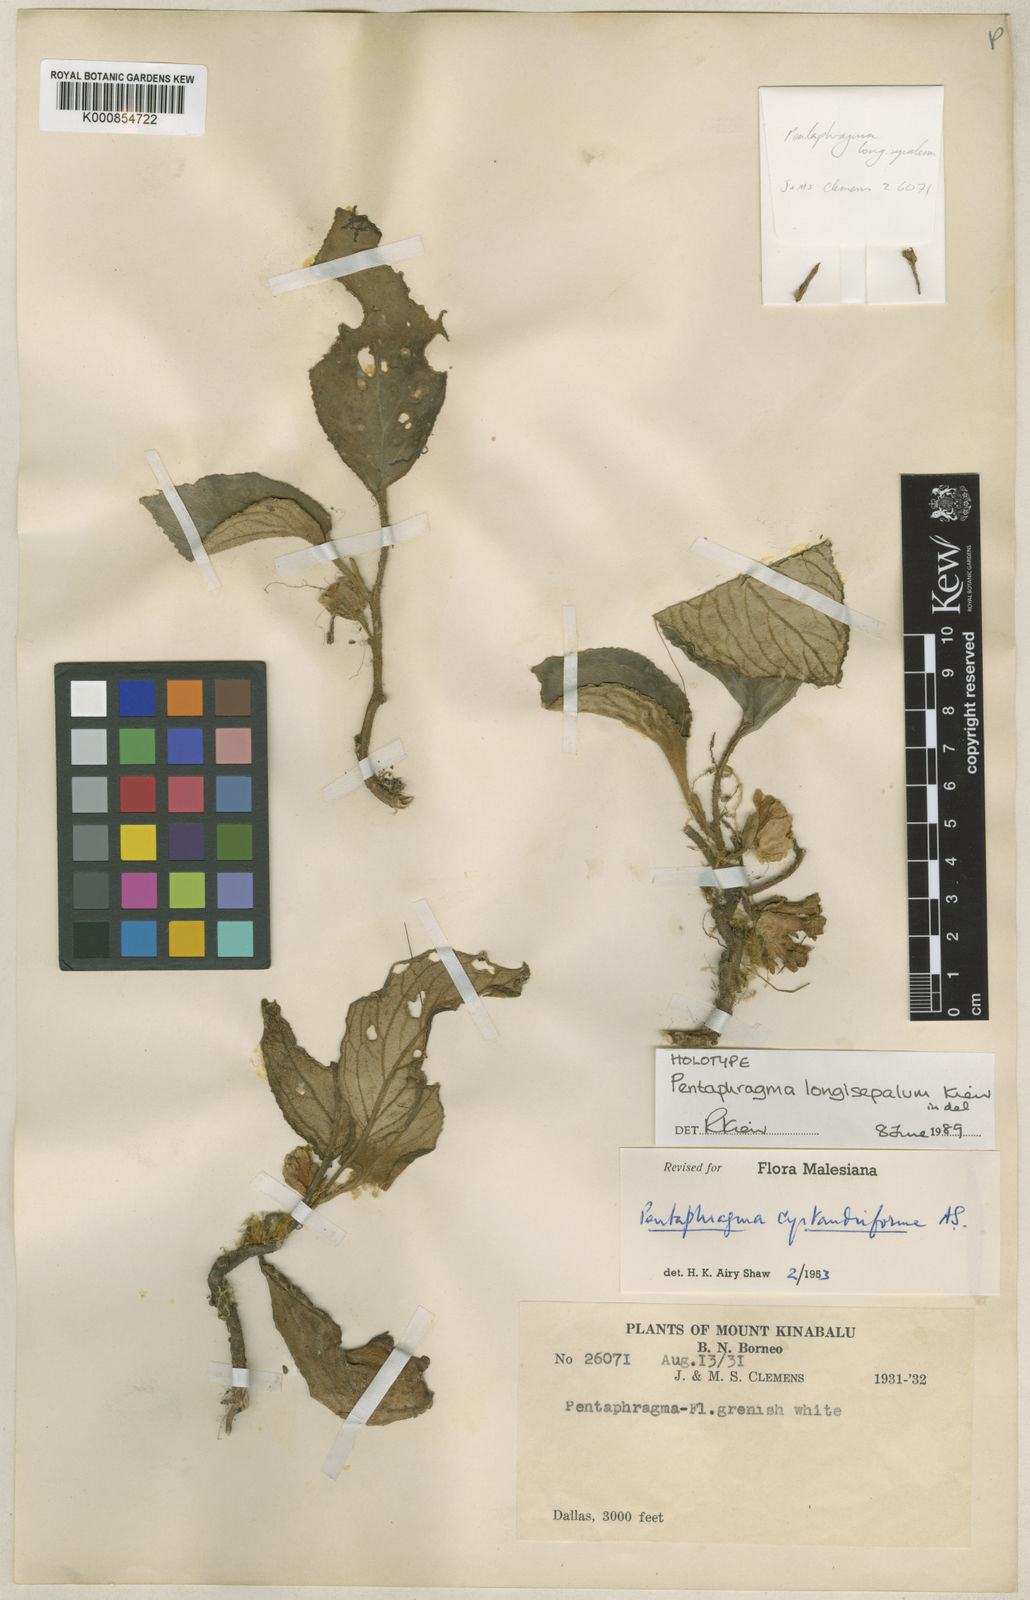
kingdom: Plantae
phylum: Tracheophyta
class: Magnoliopsida
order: Asterales
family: Pentaphragmataceae
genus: Pentaphragma
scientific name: Pentaphragma longisepalum
